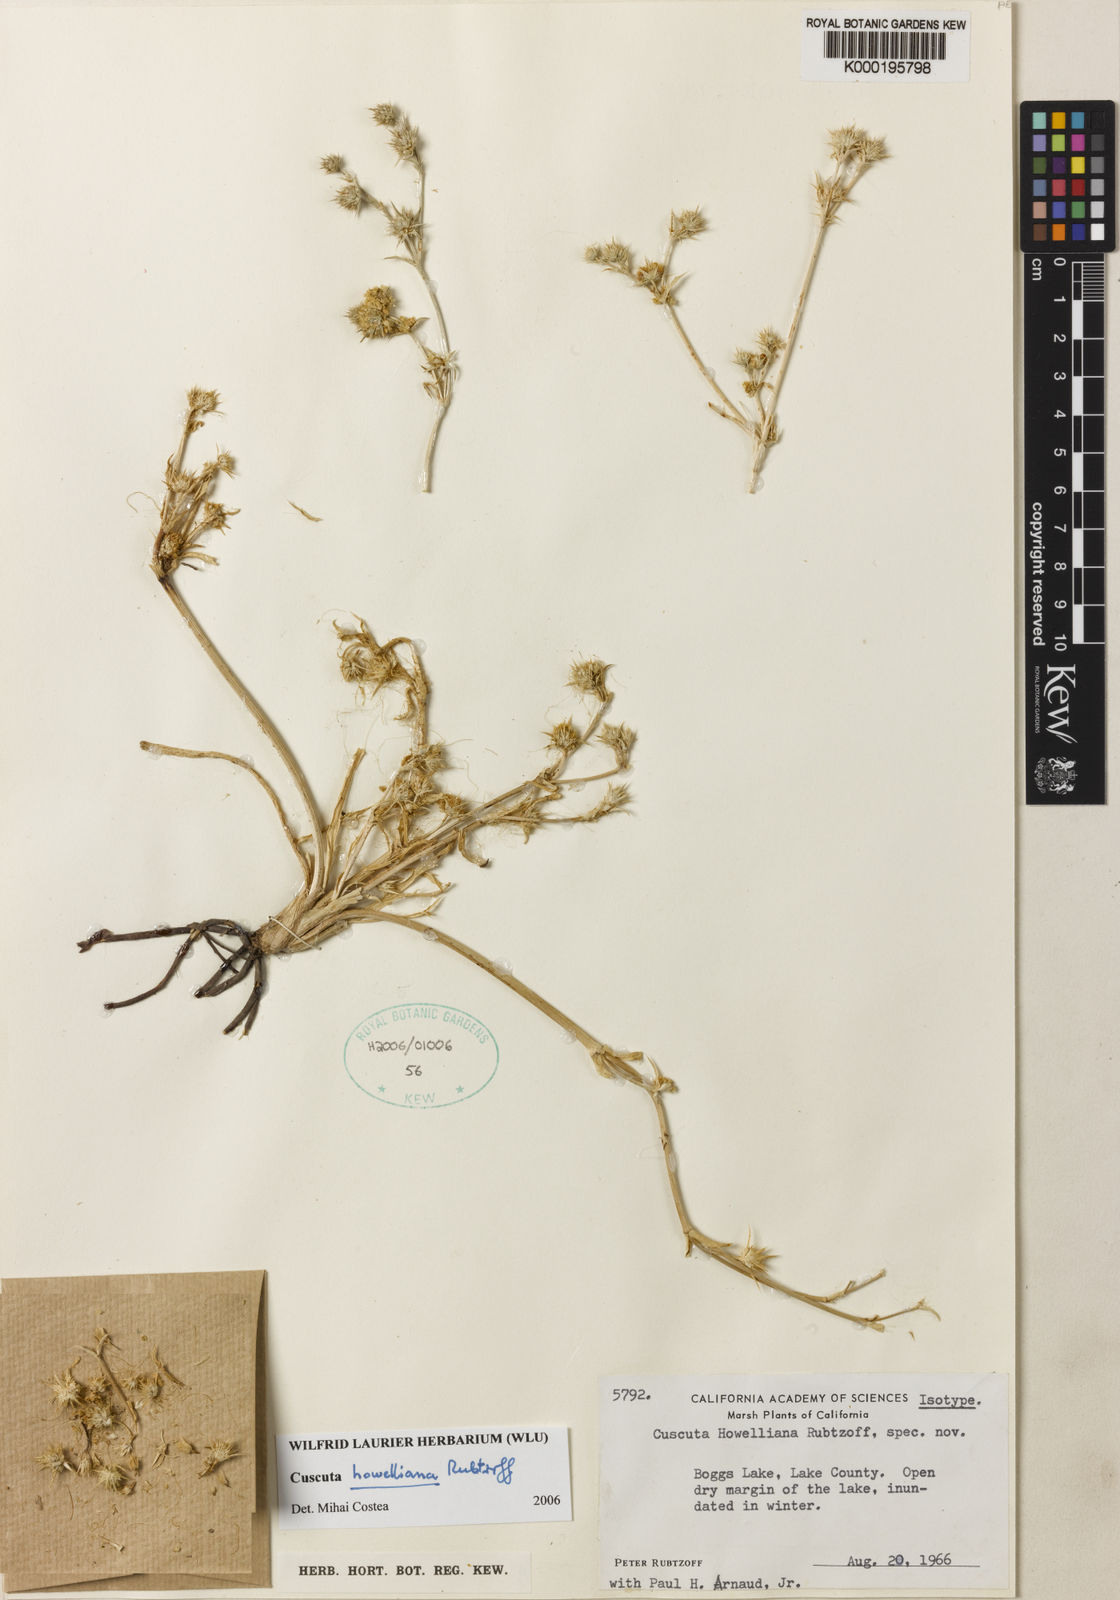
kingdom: Plantae
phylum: Tracheophyta
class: Magnoliopsida
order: Solanales
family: Convolvulaceae
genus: Cuscuta
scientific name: Cuscuta howelliana
